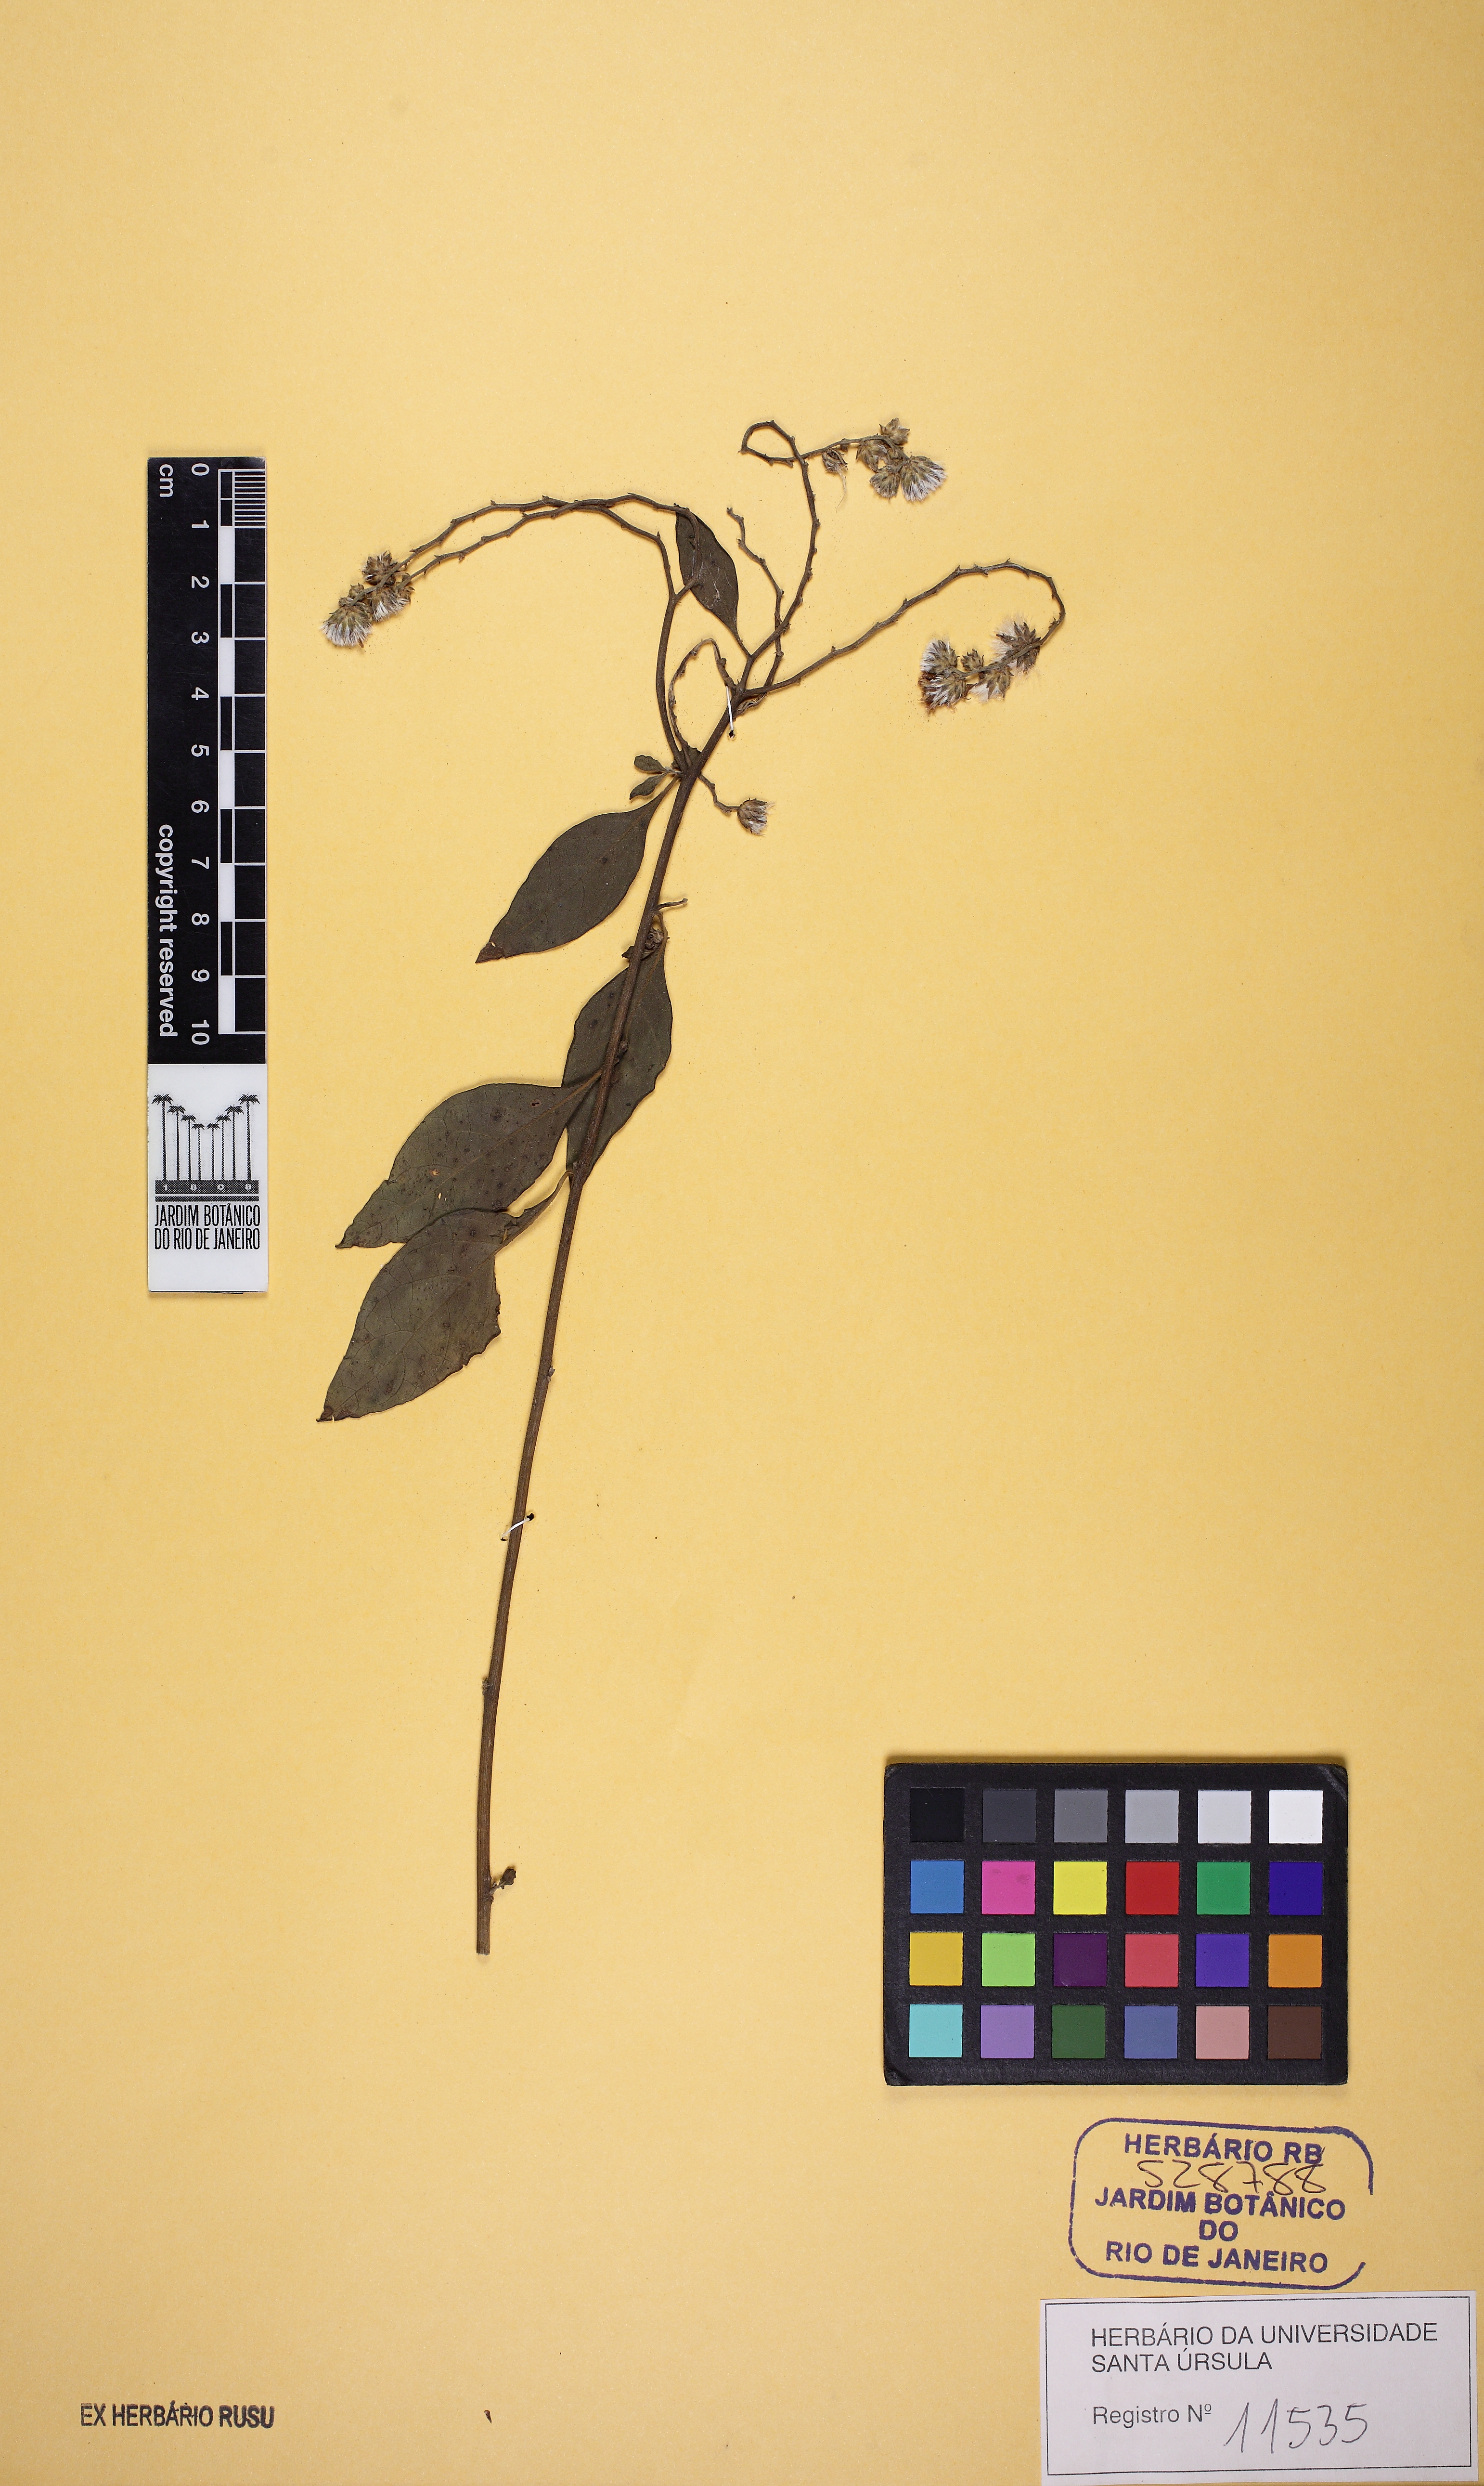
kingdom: Plantae
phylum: Tracheophyta
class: Magnoliopsida
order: Asterales
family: Asteraceae
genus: Lepidaploa
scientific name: Lepidaploa
